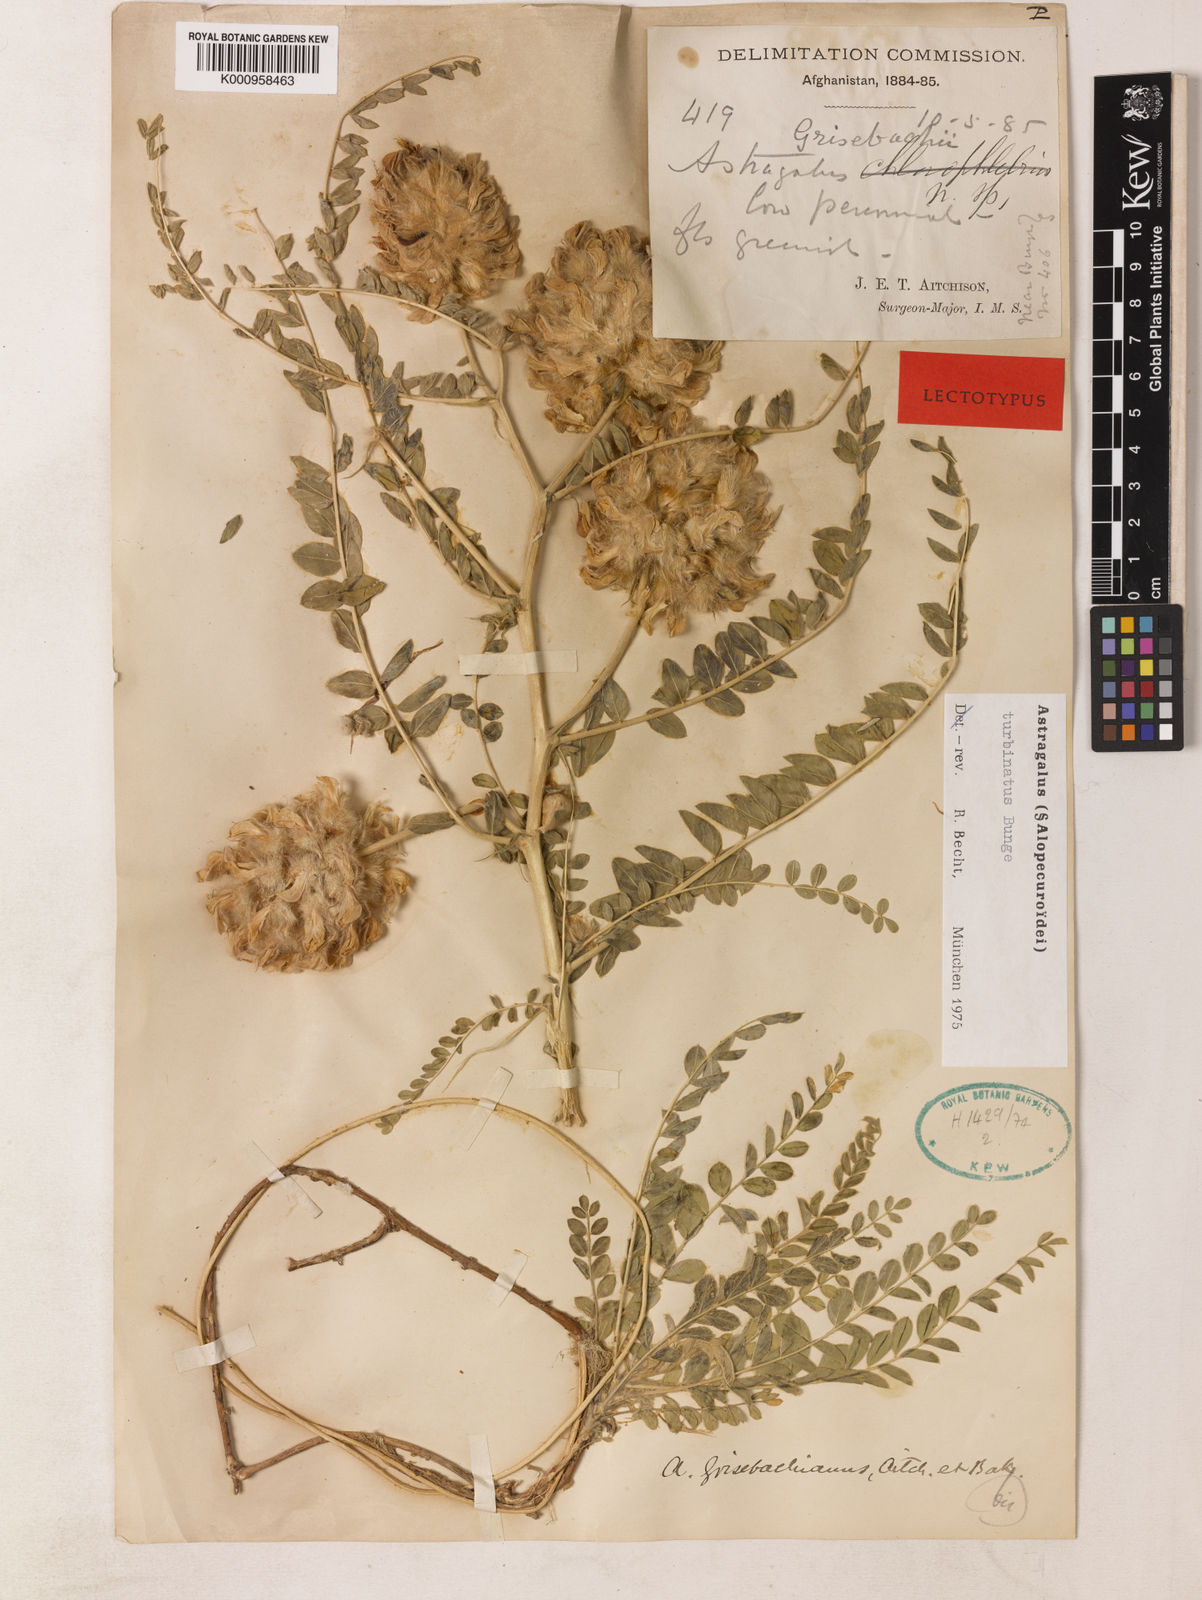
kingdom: Plantae
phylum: Tracheophyta
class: Magnoliopsida
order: Fabales
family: Fabaceae
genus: Astragalus
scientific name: Astragalus
